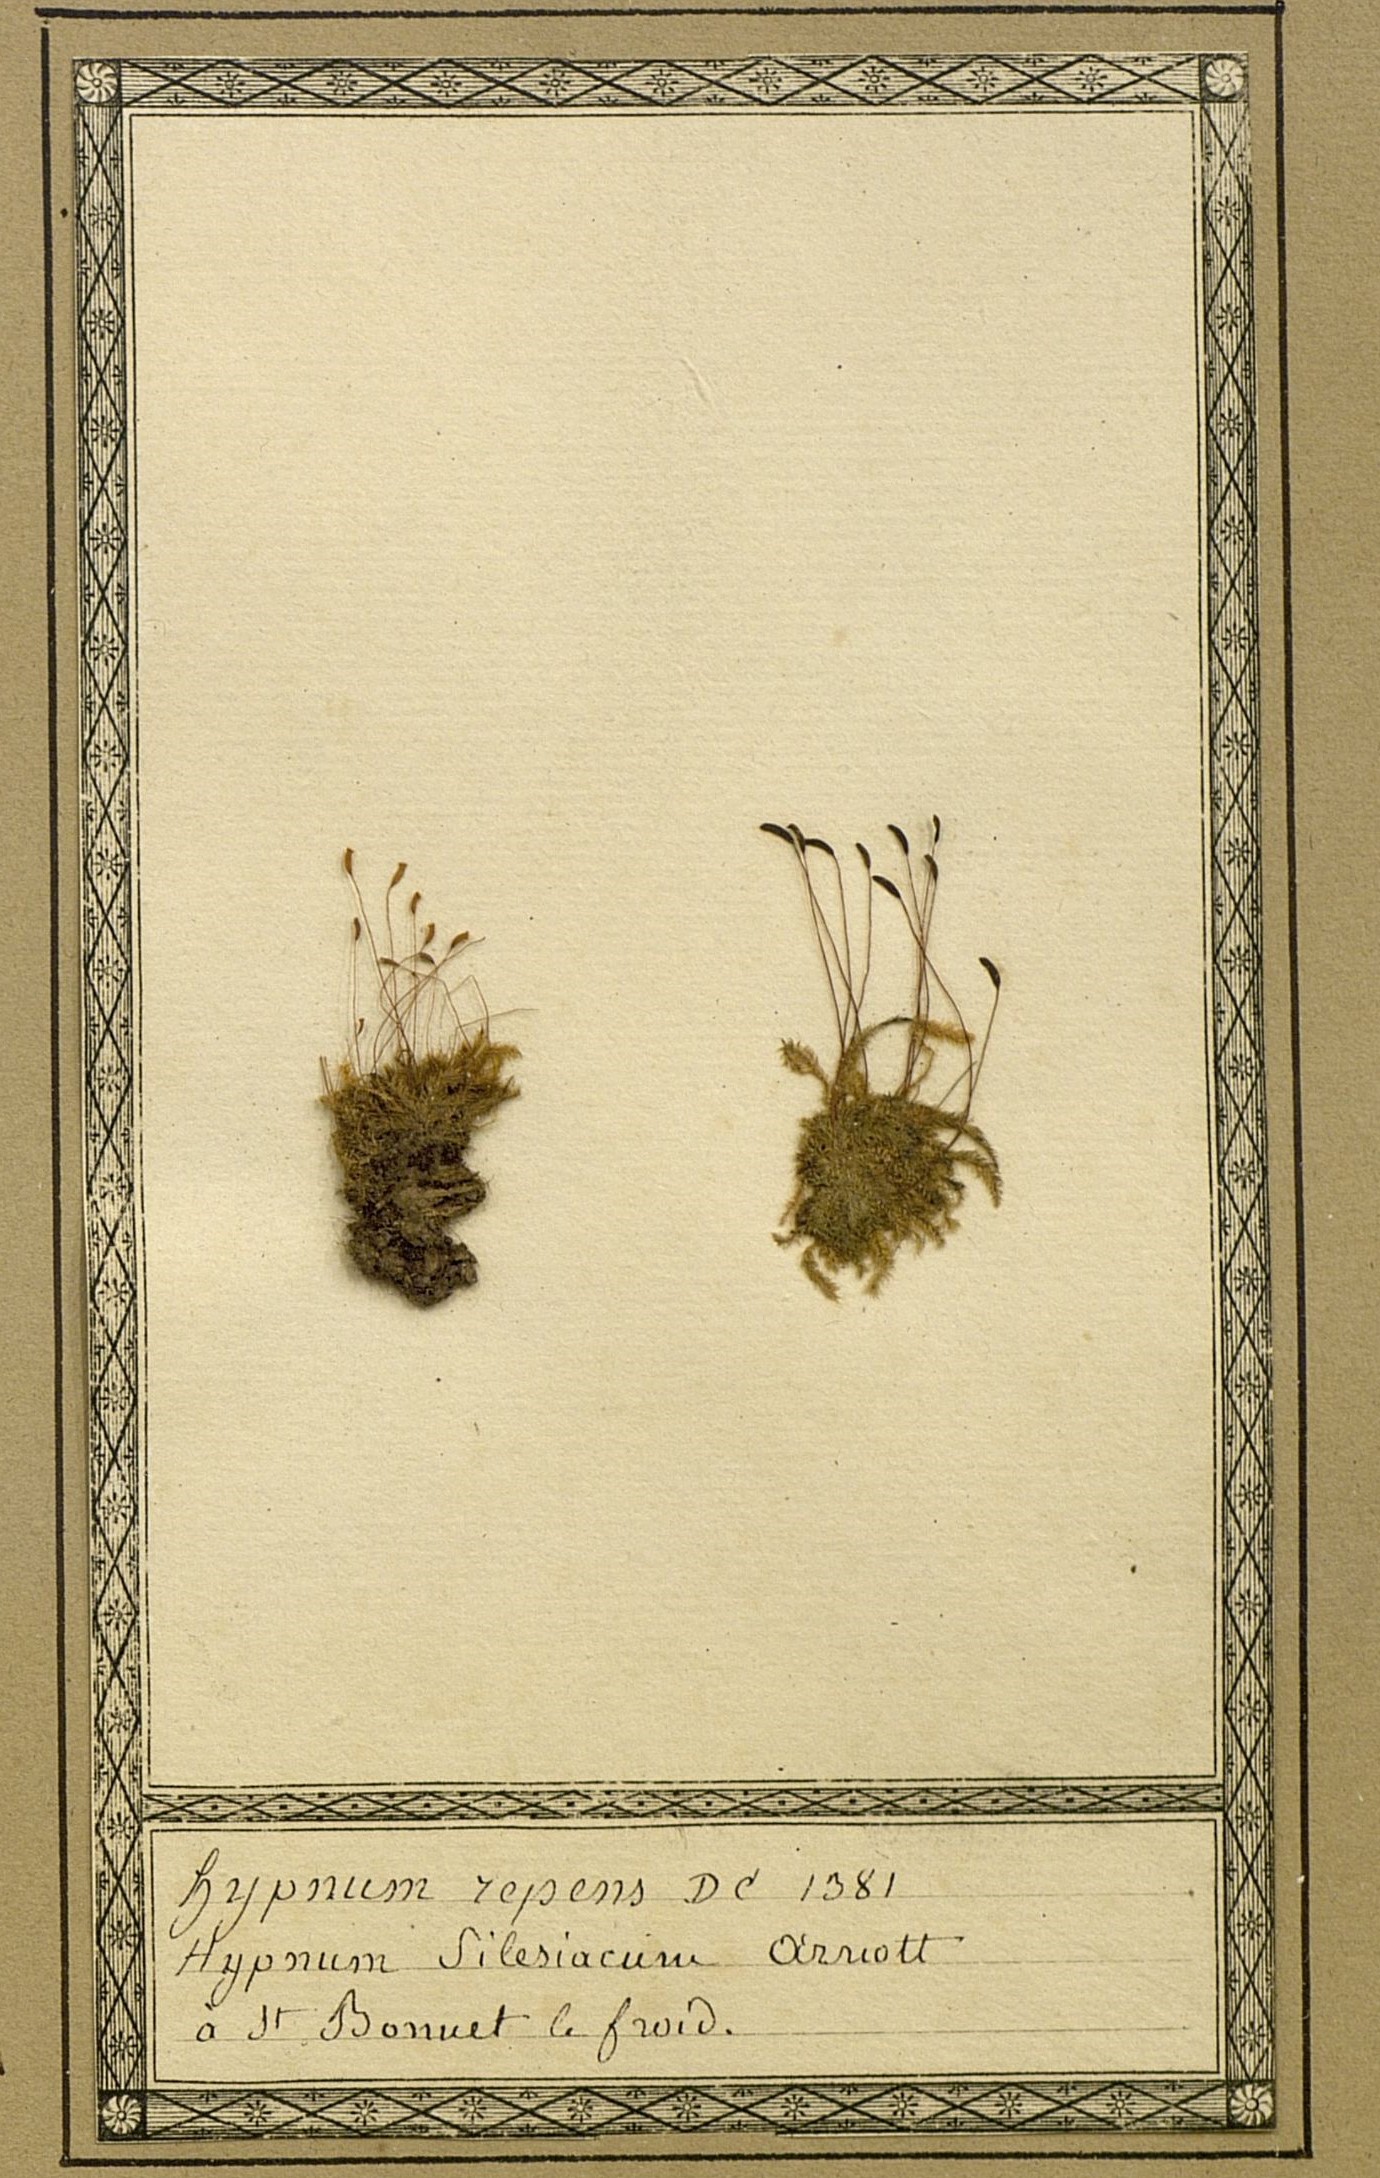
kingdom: Plantae
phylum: Bryophyta
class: Bryopsida
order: Hypnales
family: Hypnaceae
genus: Mittenothamnium
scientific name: Mittenothamnium reptans
